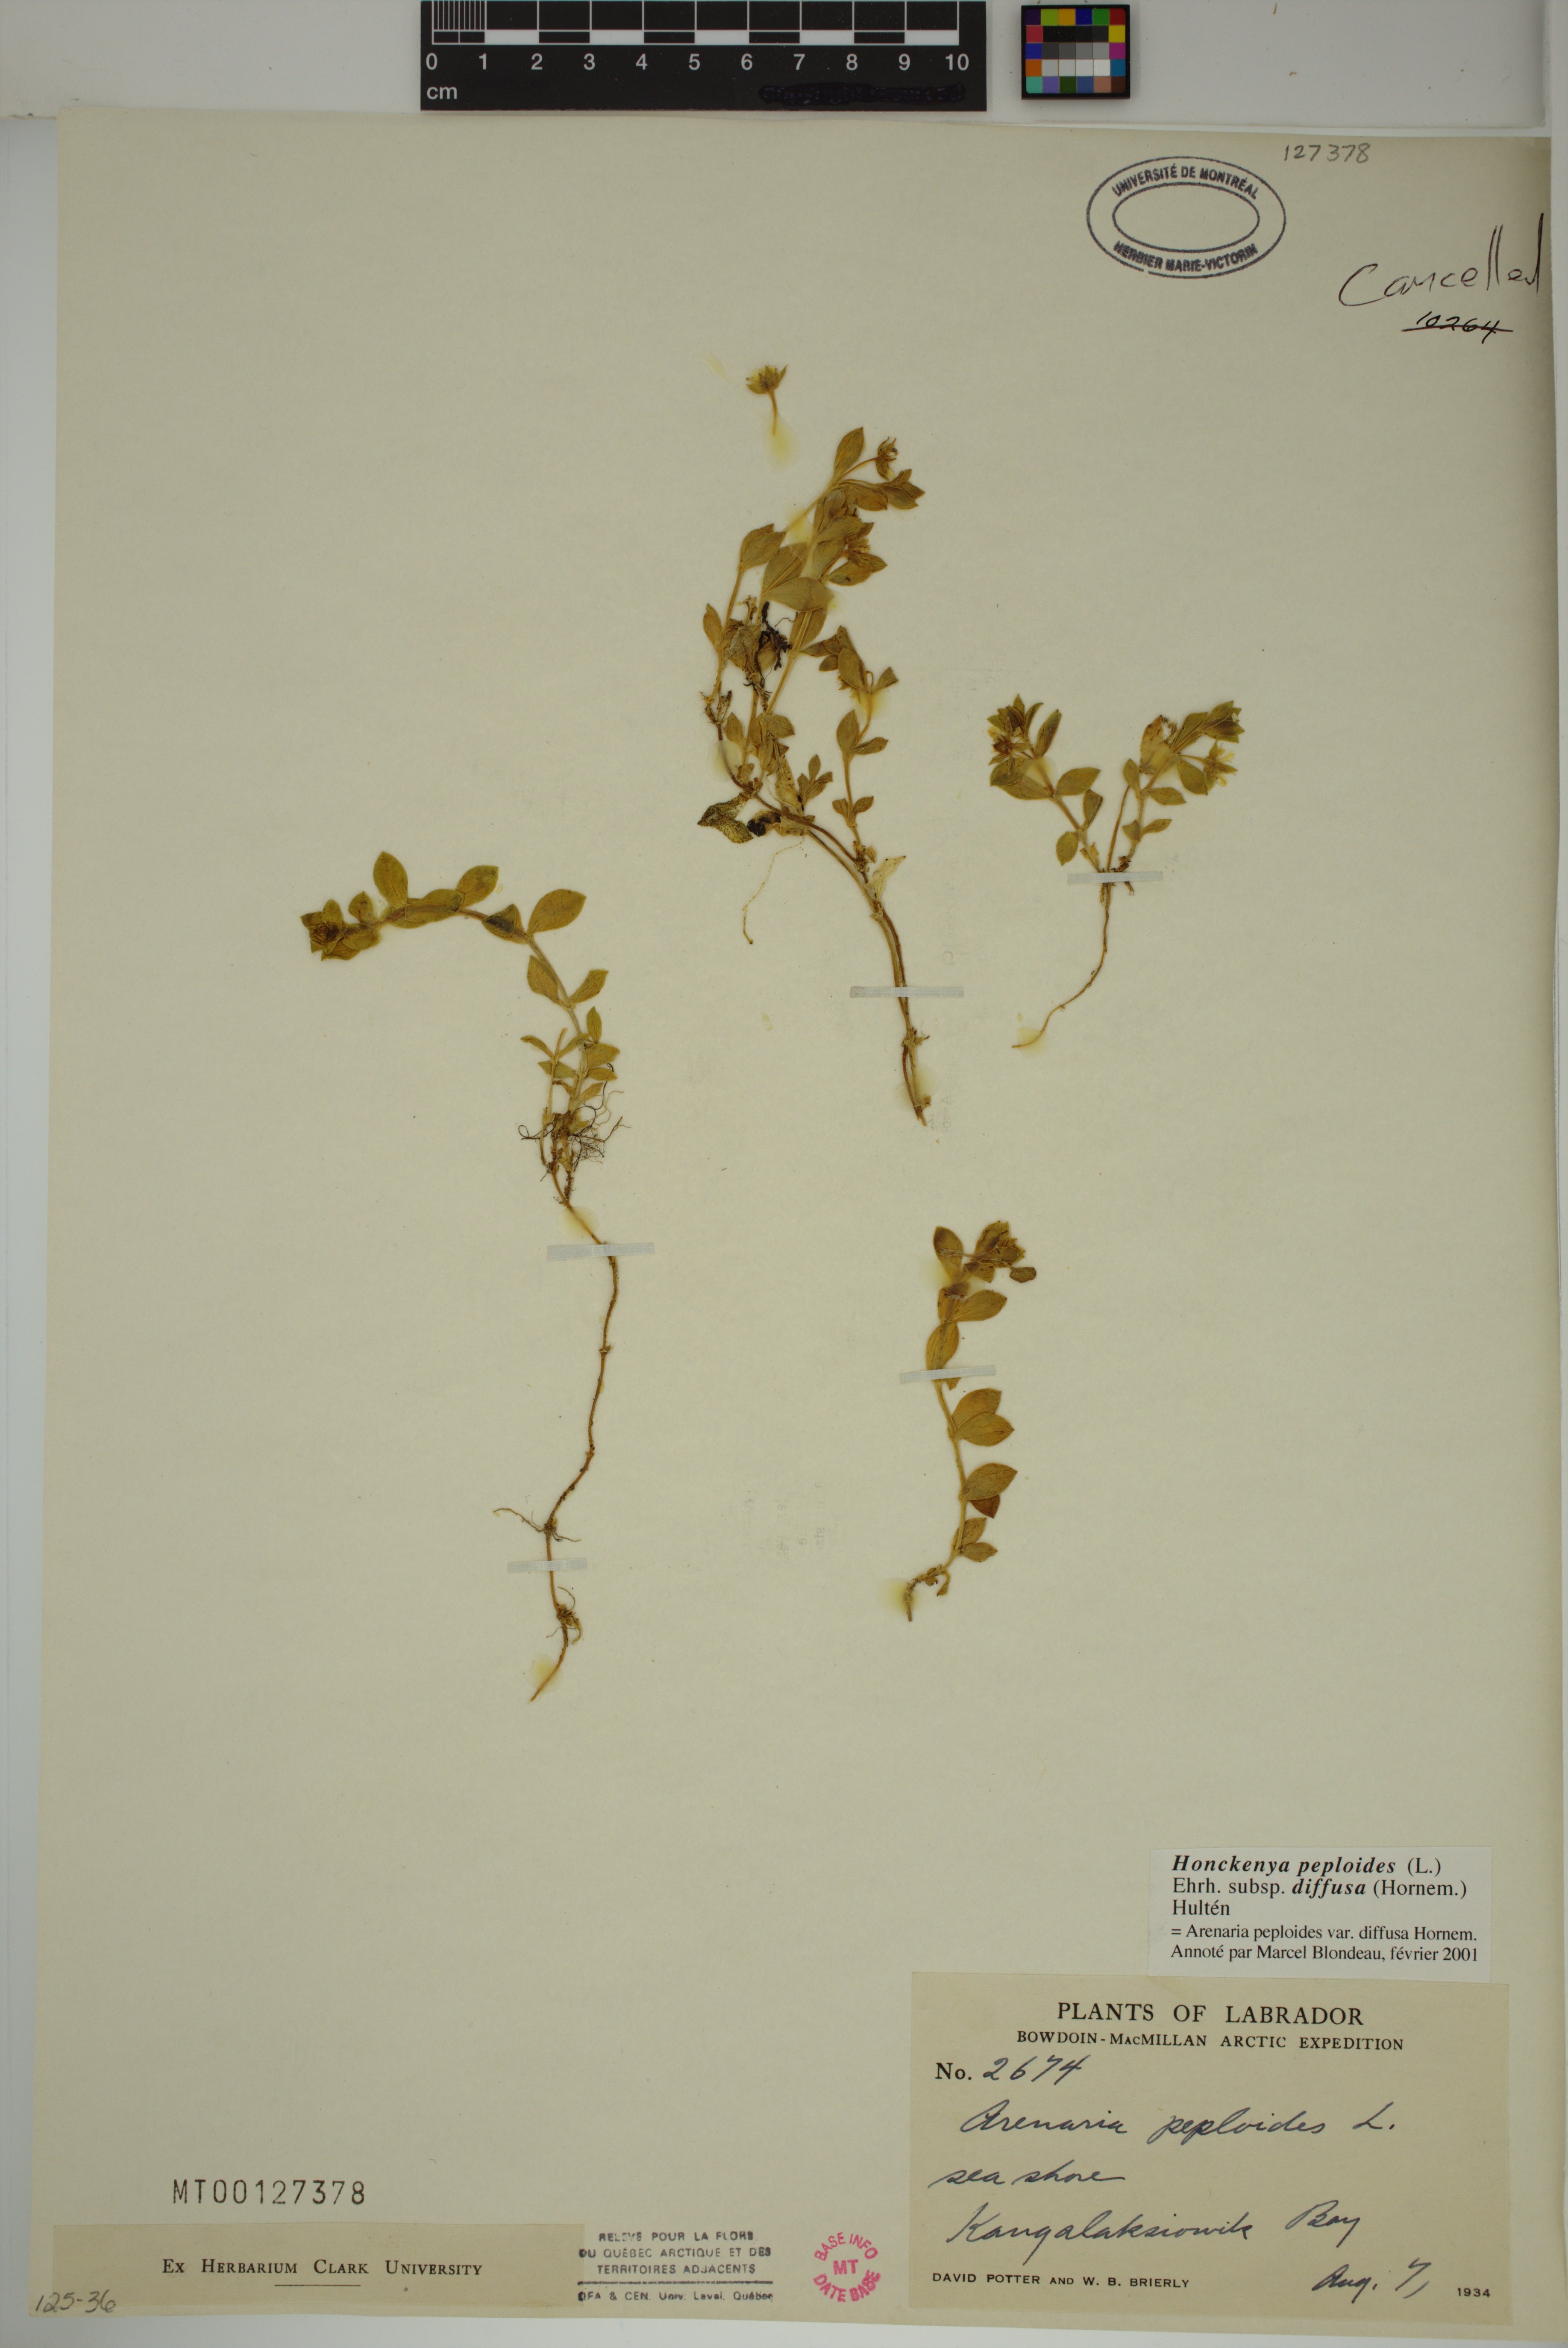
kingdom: Plantae
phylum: Tracheophyta
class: Magnoliopsida
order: Caryophyllales
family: Caryophyllaceae
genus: Honckenya
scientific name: Honckenya peploides
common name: Sea sandwort
